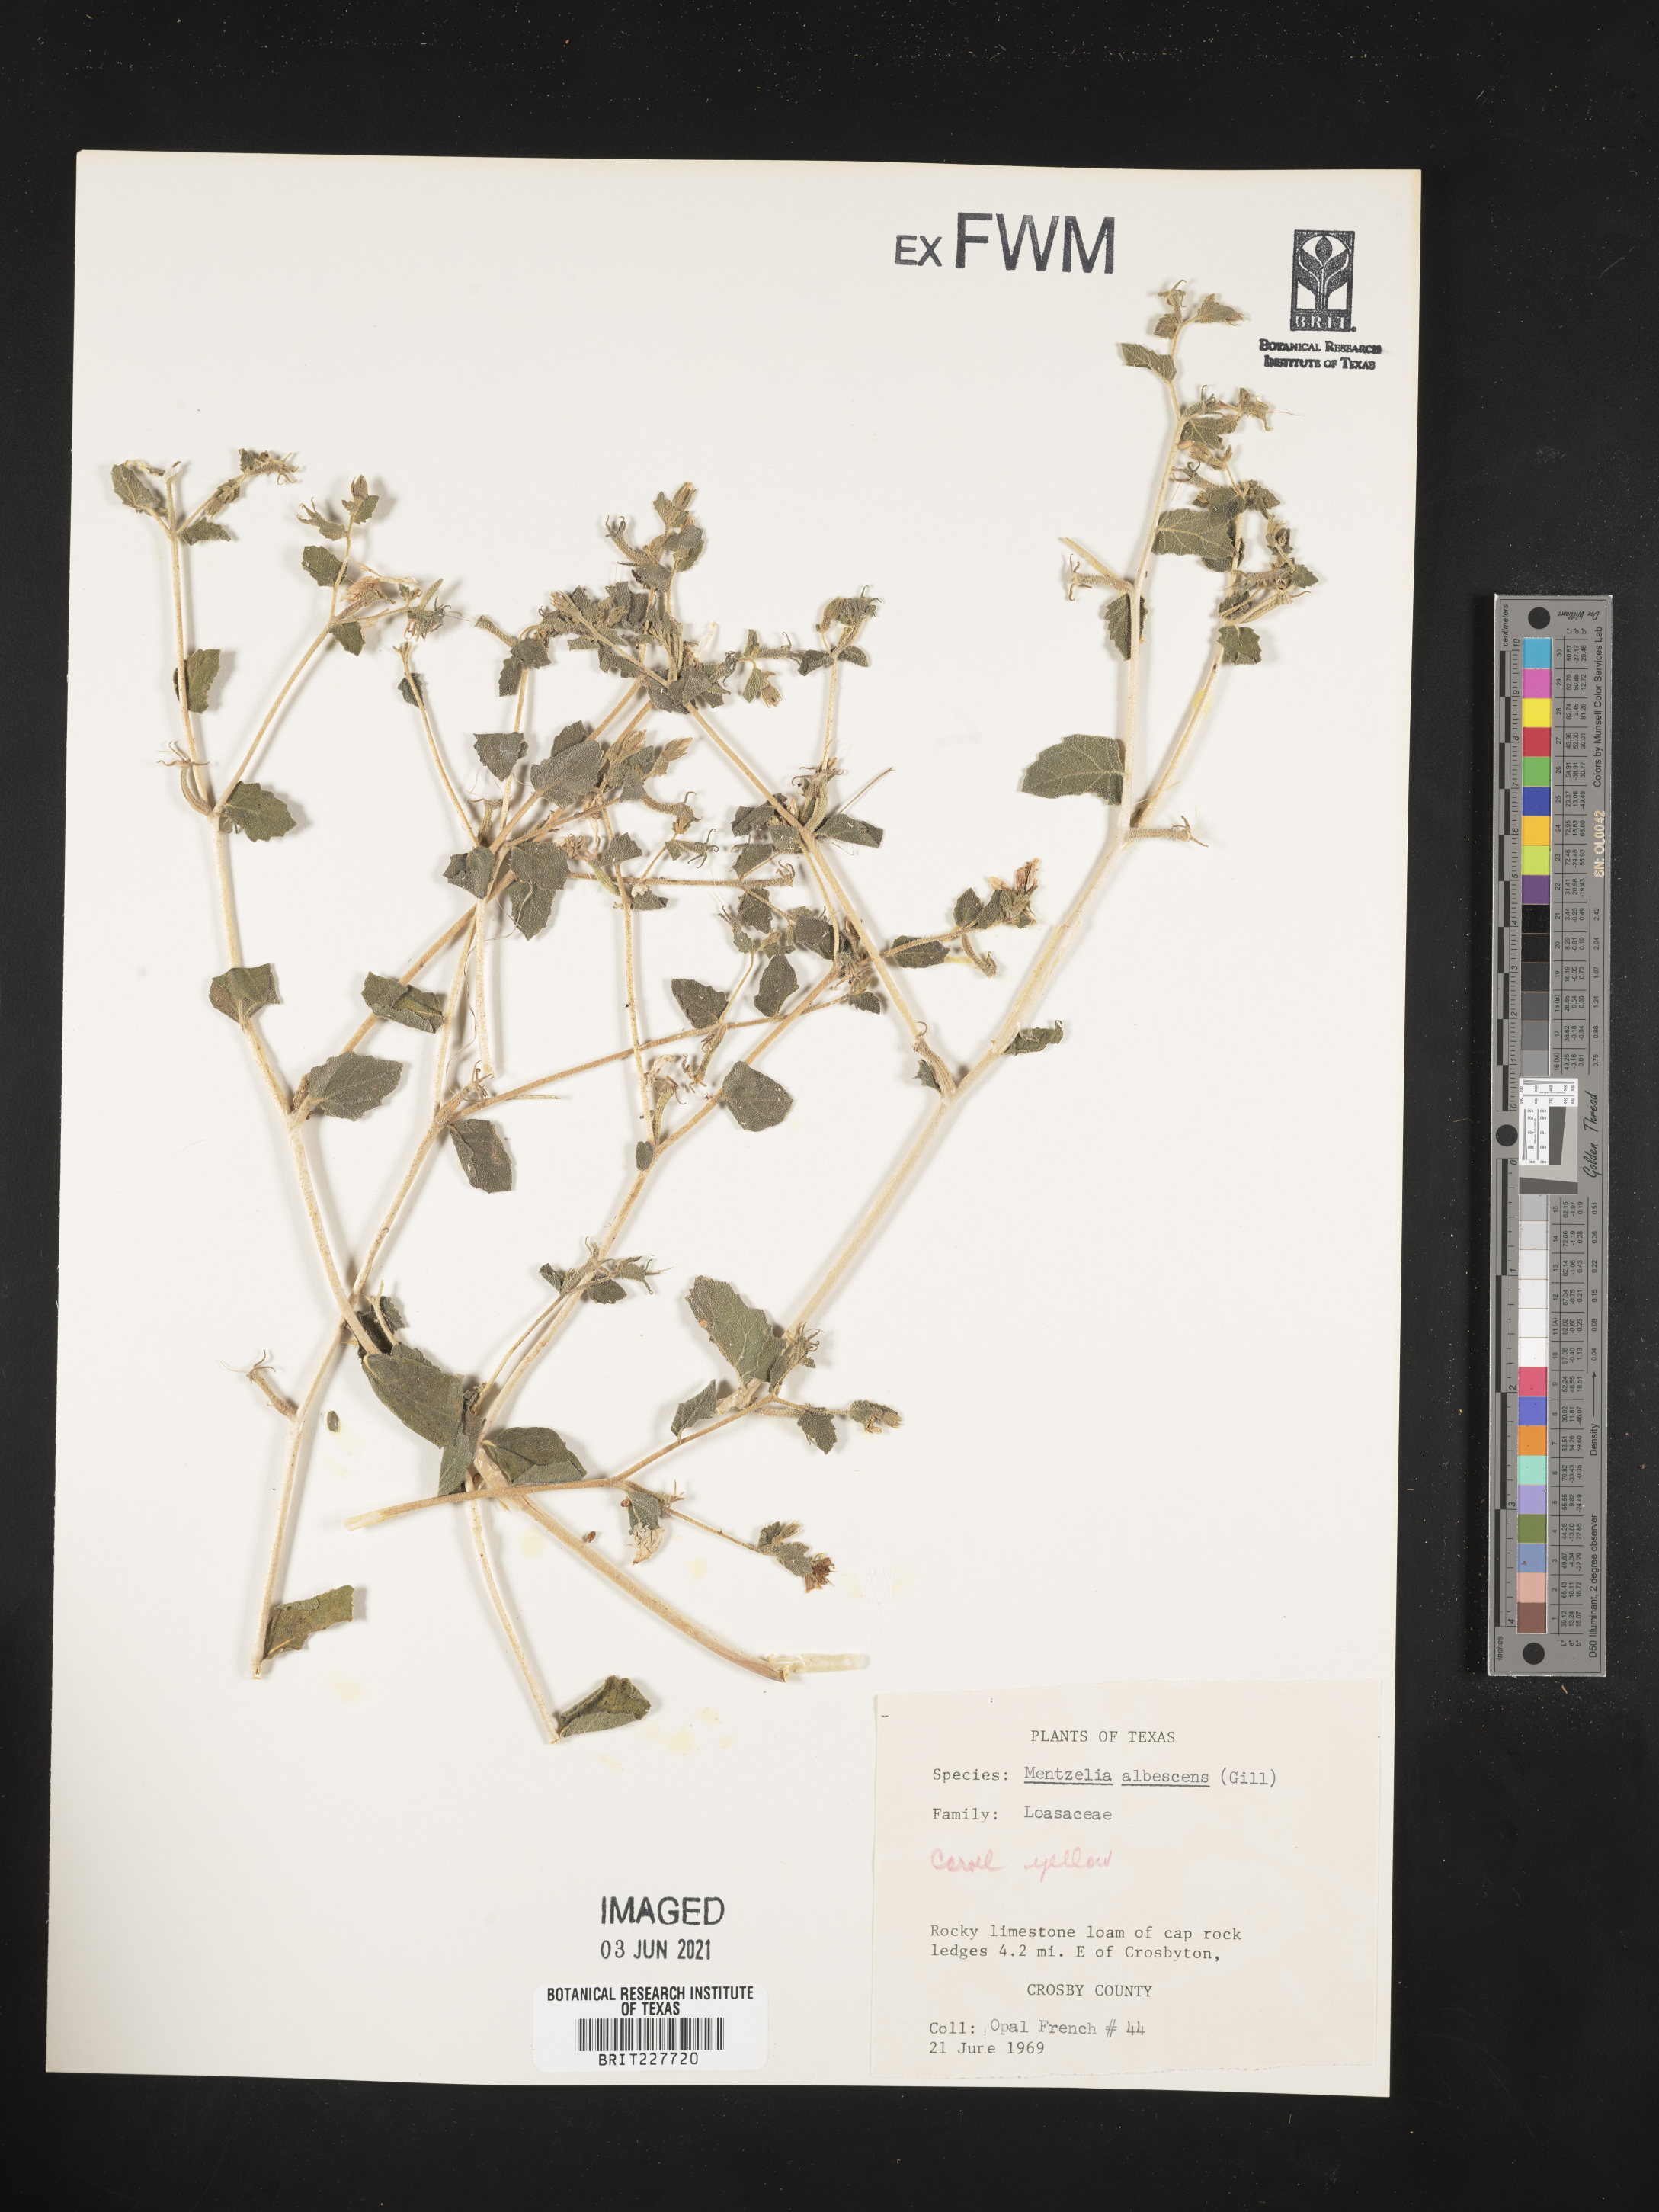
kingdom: Plantae
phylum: Tracheophyta
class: Magnoliopsida
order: Cornales
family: Loasaceae
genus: Mentzelia
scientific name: Mentzelia albescens
